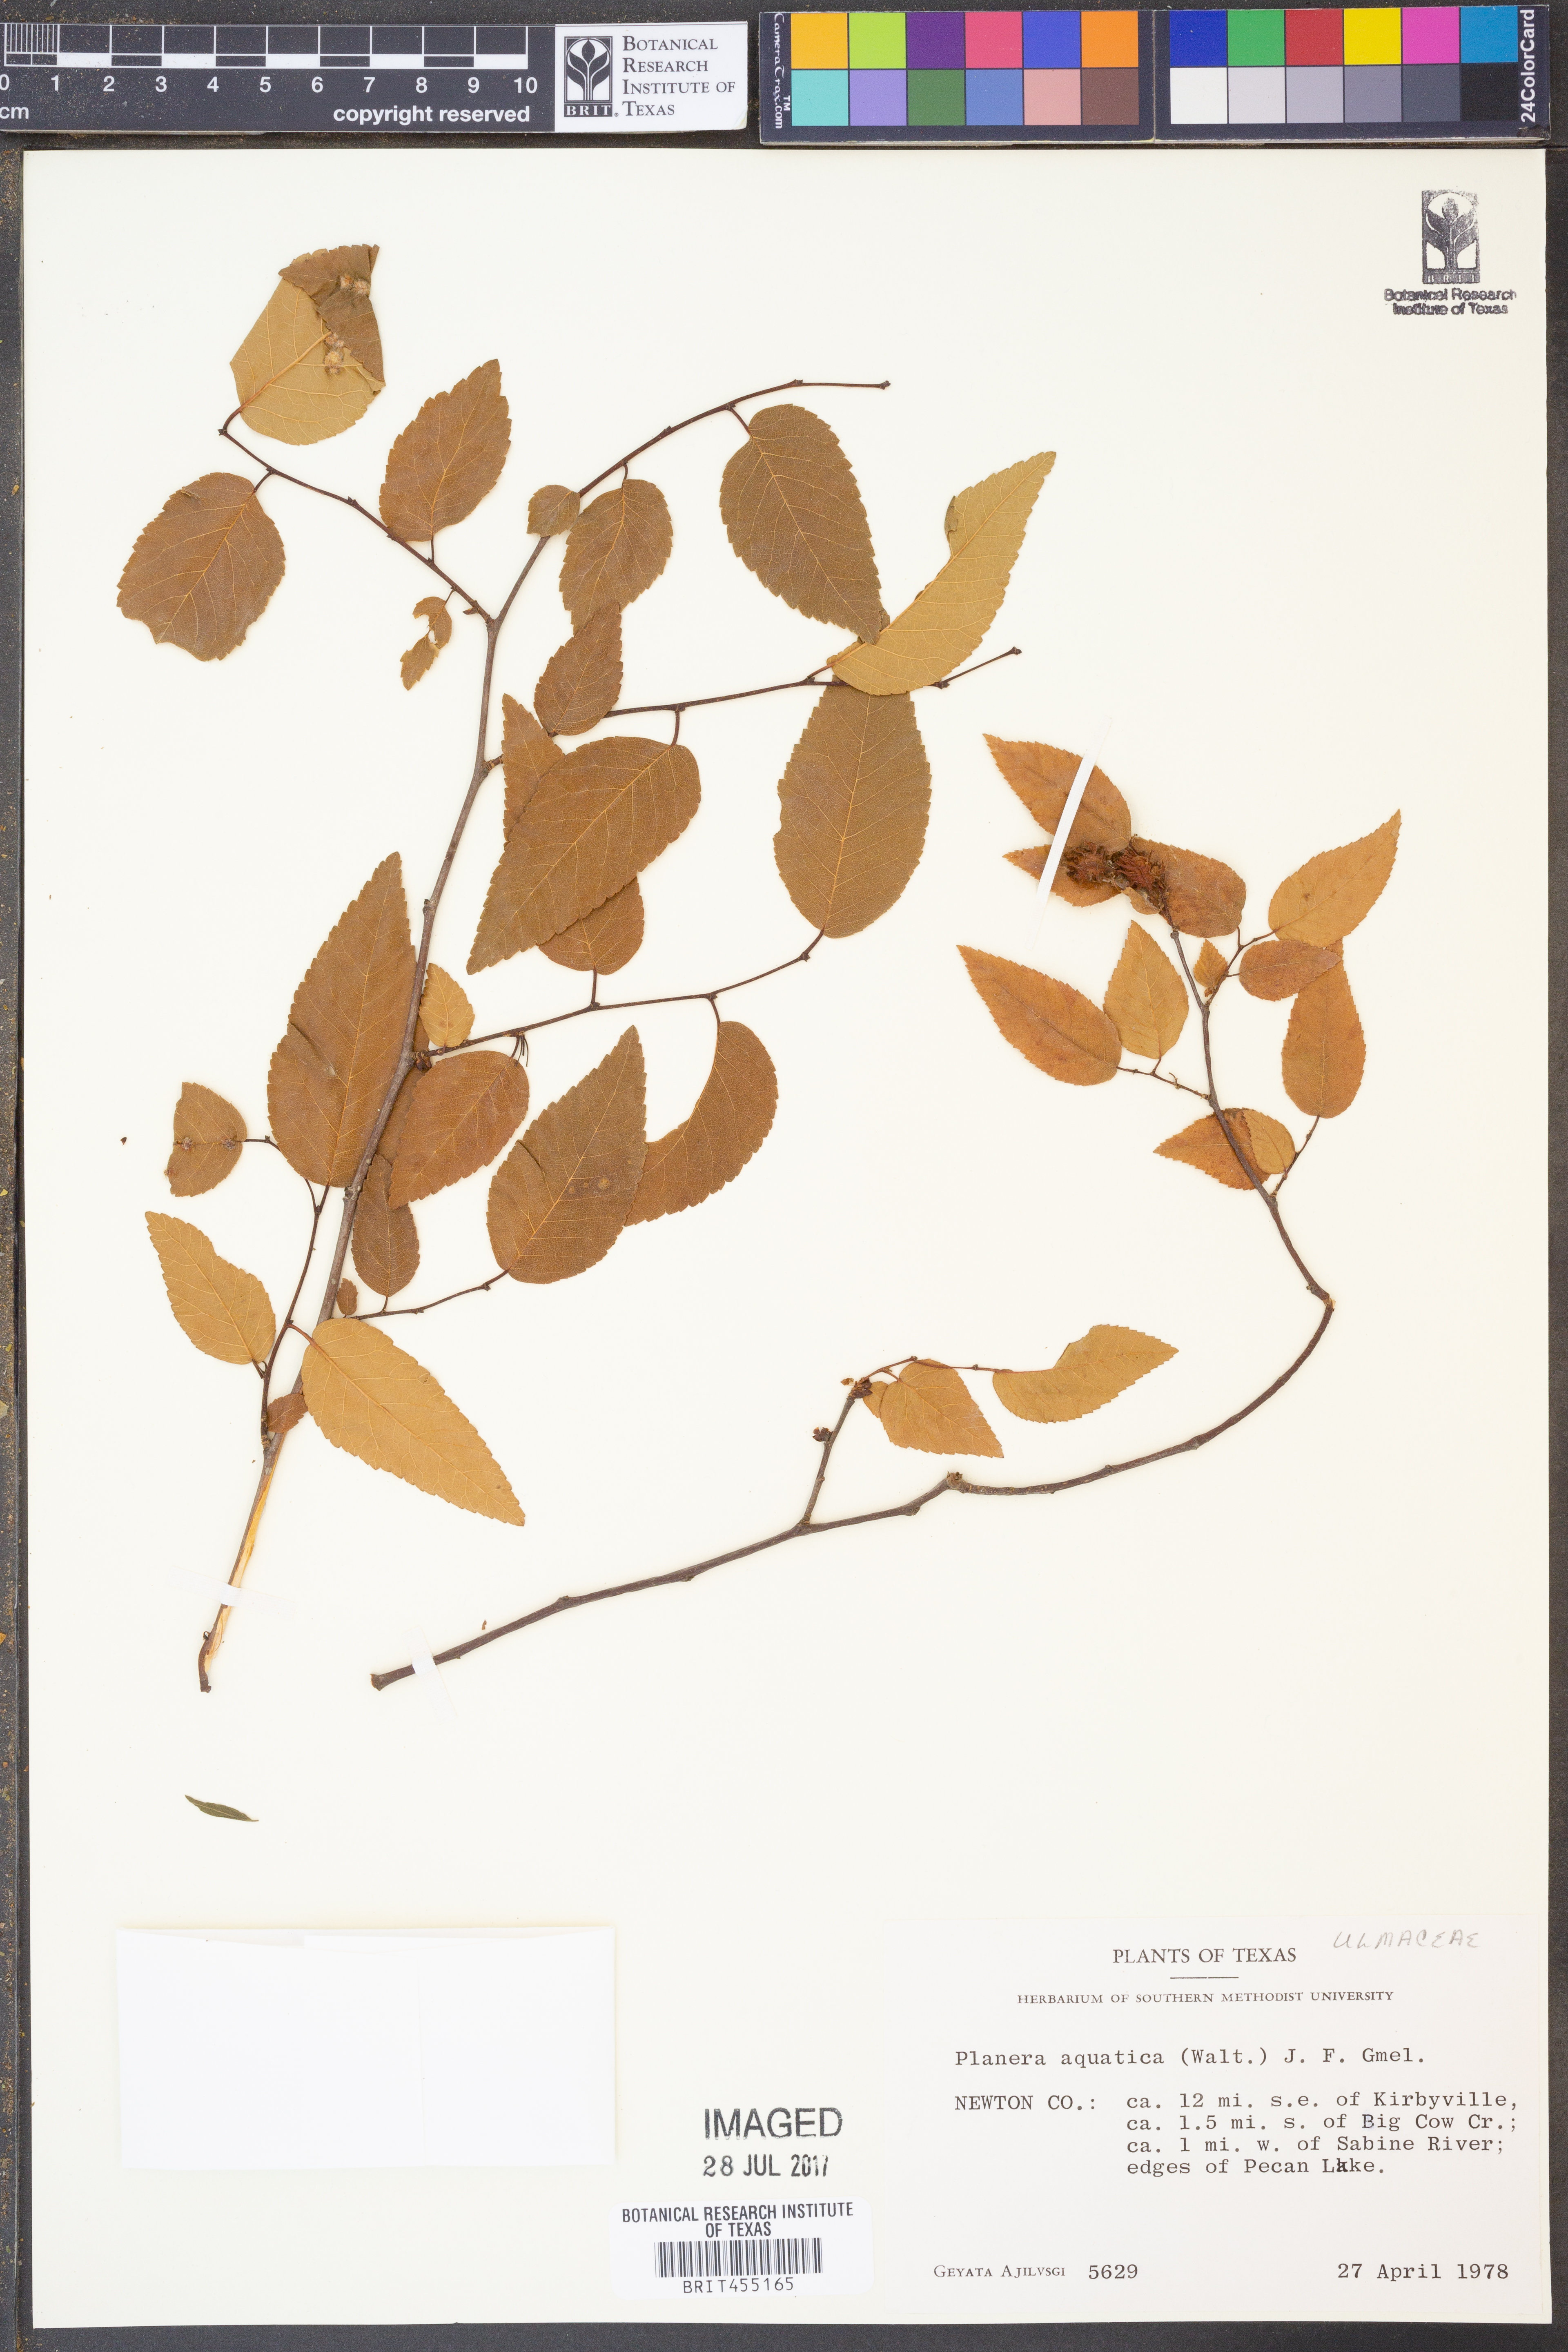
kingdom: Plantae
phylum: Tracheophyta
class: Magnoliopsida
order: Rosales
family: Ulmaceae
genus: Planera
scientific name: Planera aquatica
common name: Water-elm
